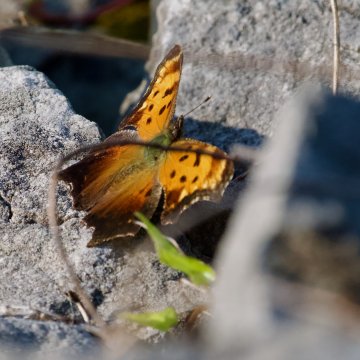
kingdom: Animalia
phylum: Arthropoda
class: Insecta
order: Lepidoptera
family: Nymphalidae
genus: Polygonia
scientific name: Polygonia progne
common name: Gray Comma
